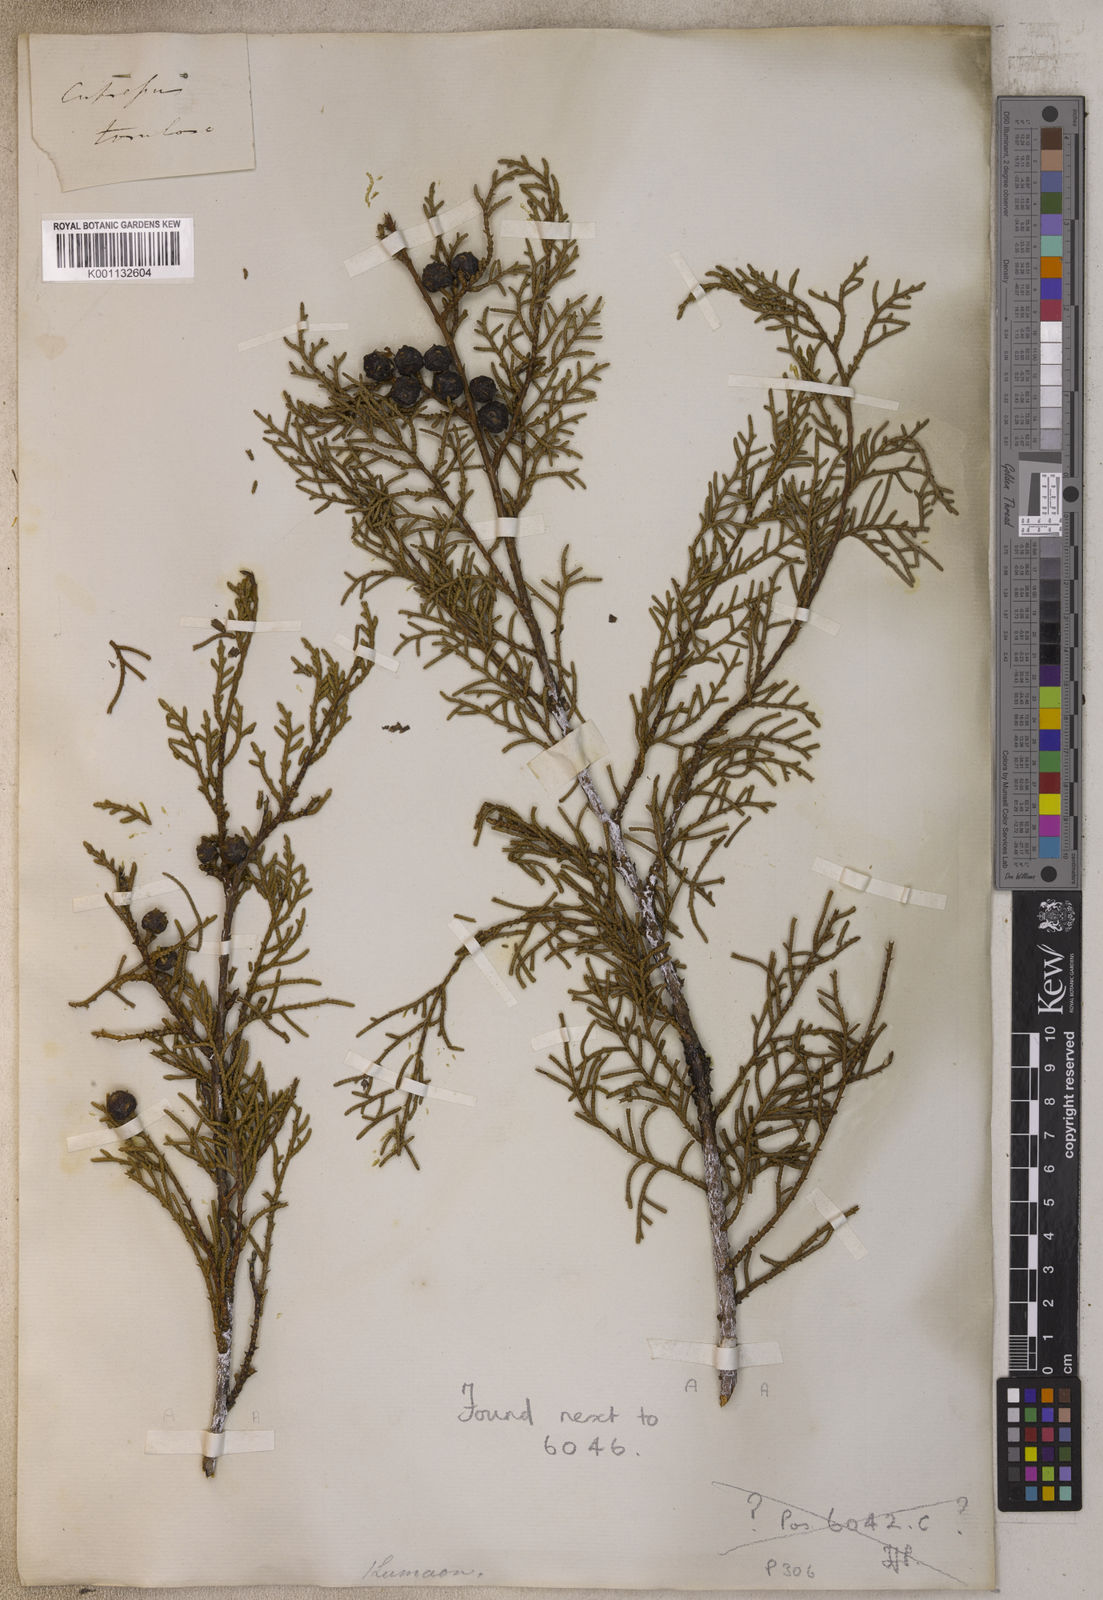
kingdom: Plantae
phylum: Tracheophyta
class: Pinopsida
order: Pinales
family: Cupressaceae
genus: Cupressus
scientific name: Cupressus cashmeriana
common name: Bhutan cypress
